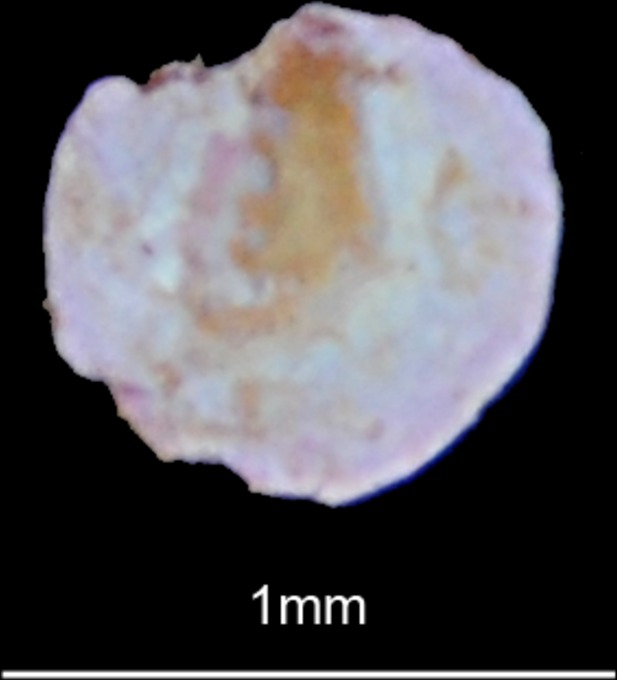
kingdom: Animalia
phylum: Chordata
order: Cypriniformes
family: Cyprinidae
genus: Schizothorax
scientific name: Schizothorax richardsonii
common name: Alawan snowtrout
